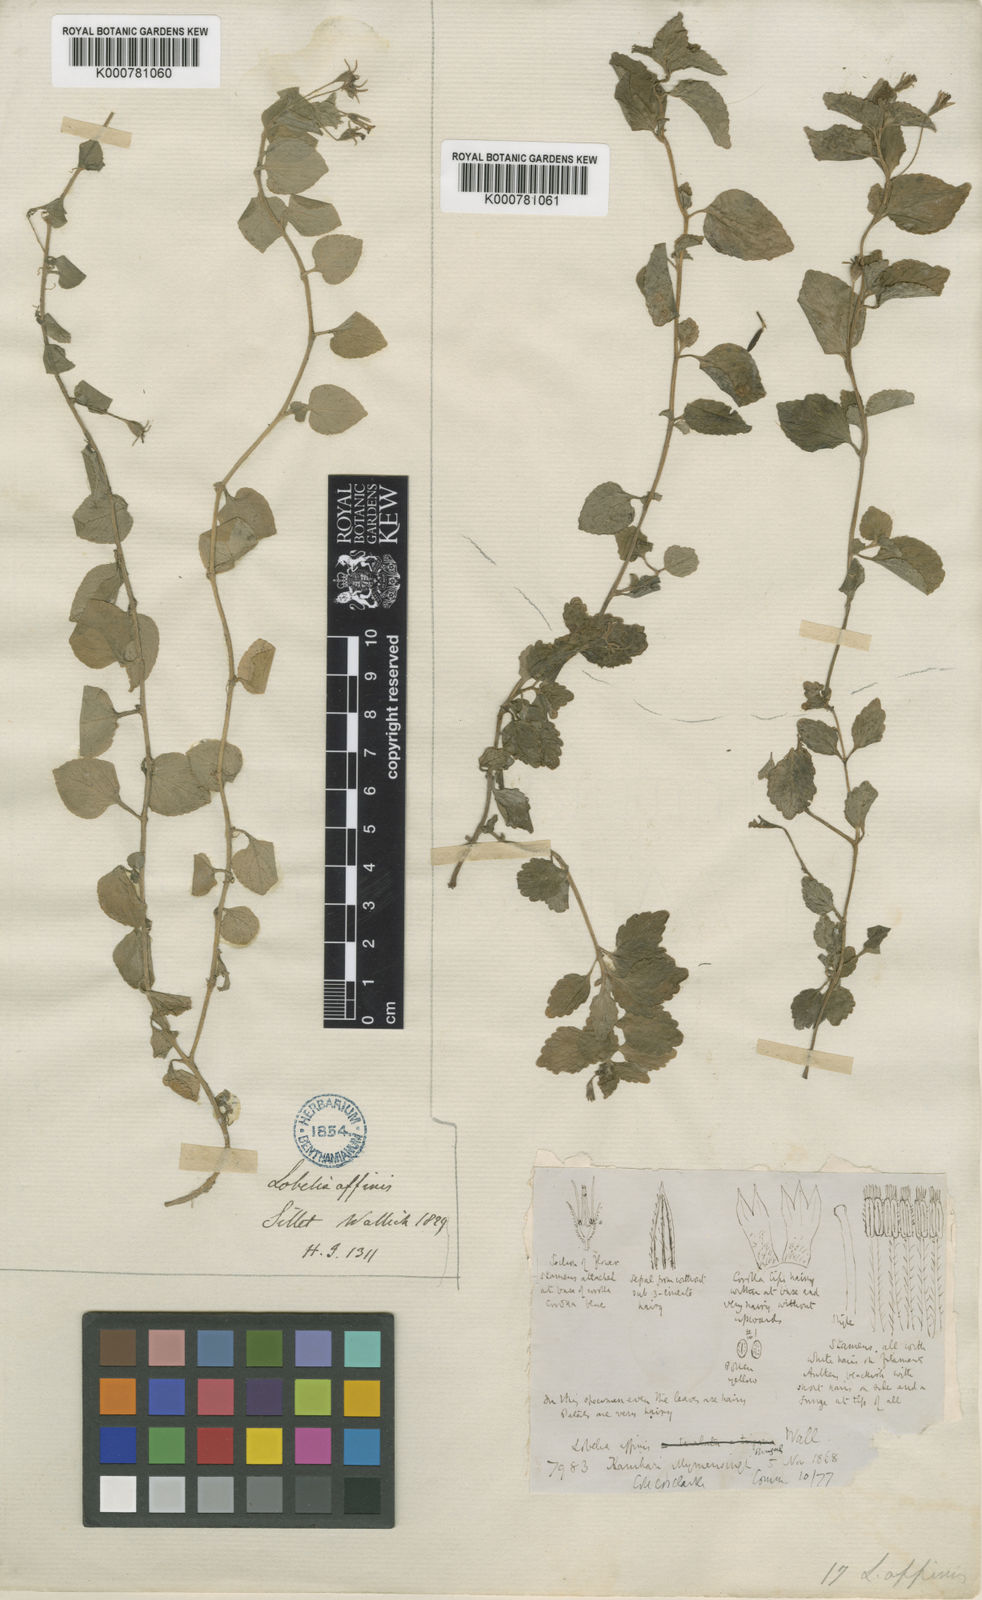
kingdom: Plantae
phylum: Tracheophyta
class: Magnoliopsida
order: Asterales
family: Campanulaceae
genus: Lobelia
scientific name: Lobelia zeylanica
